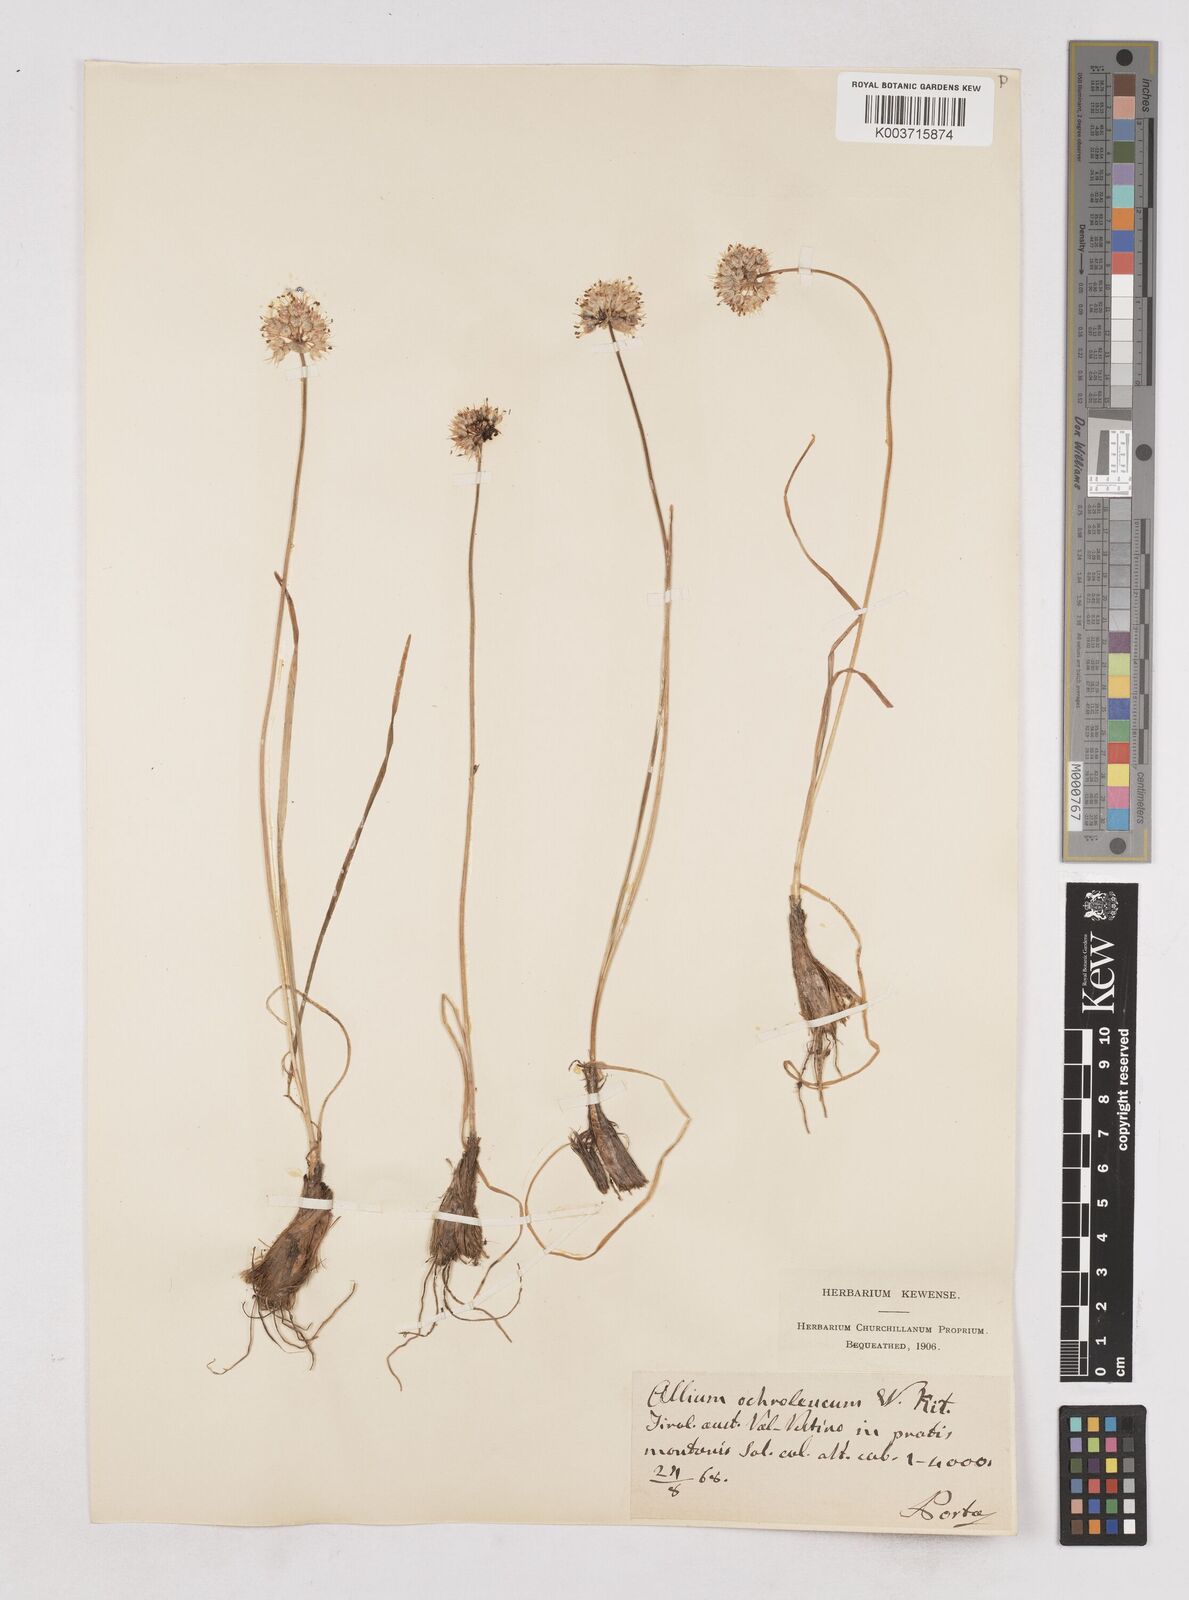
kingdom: Plantae
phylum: Tracheophyta
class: Liliopsida
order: Asparagales
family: Amaryllidaceae
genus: Allium
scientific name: Allium ericetorum
